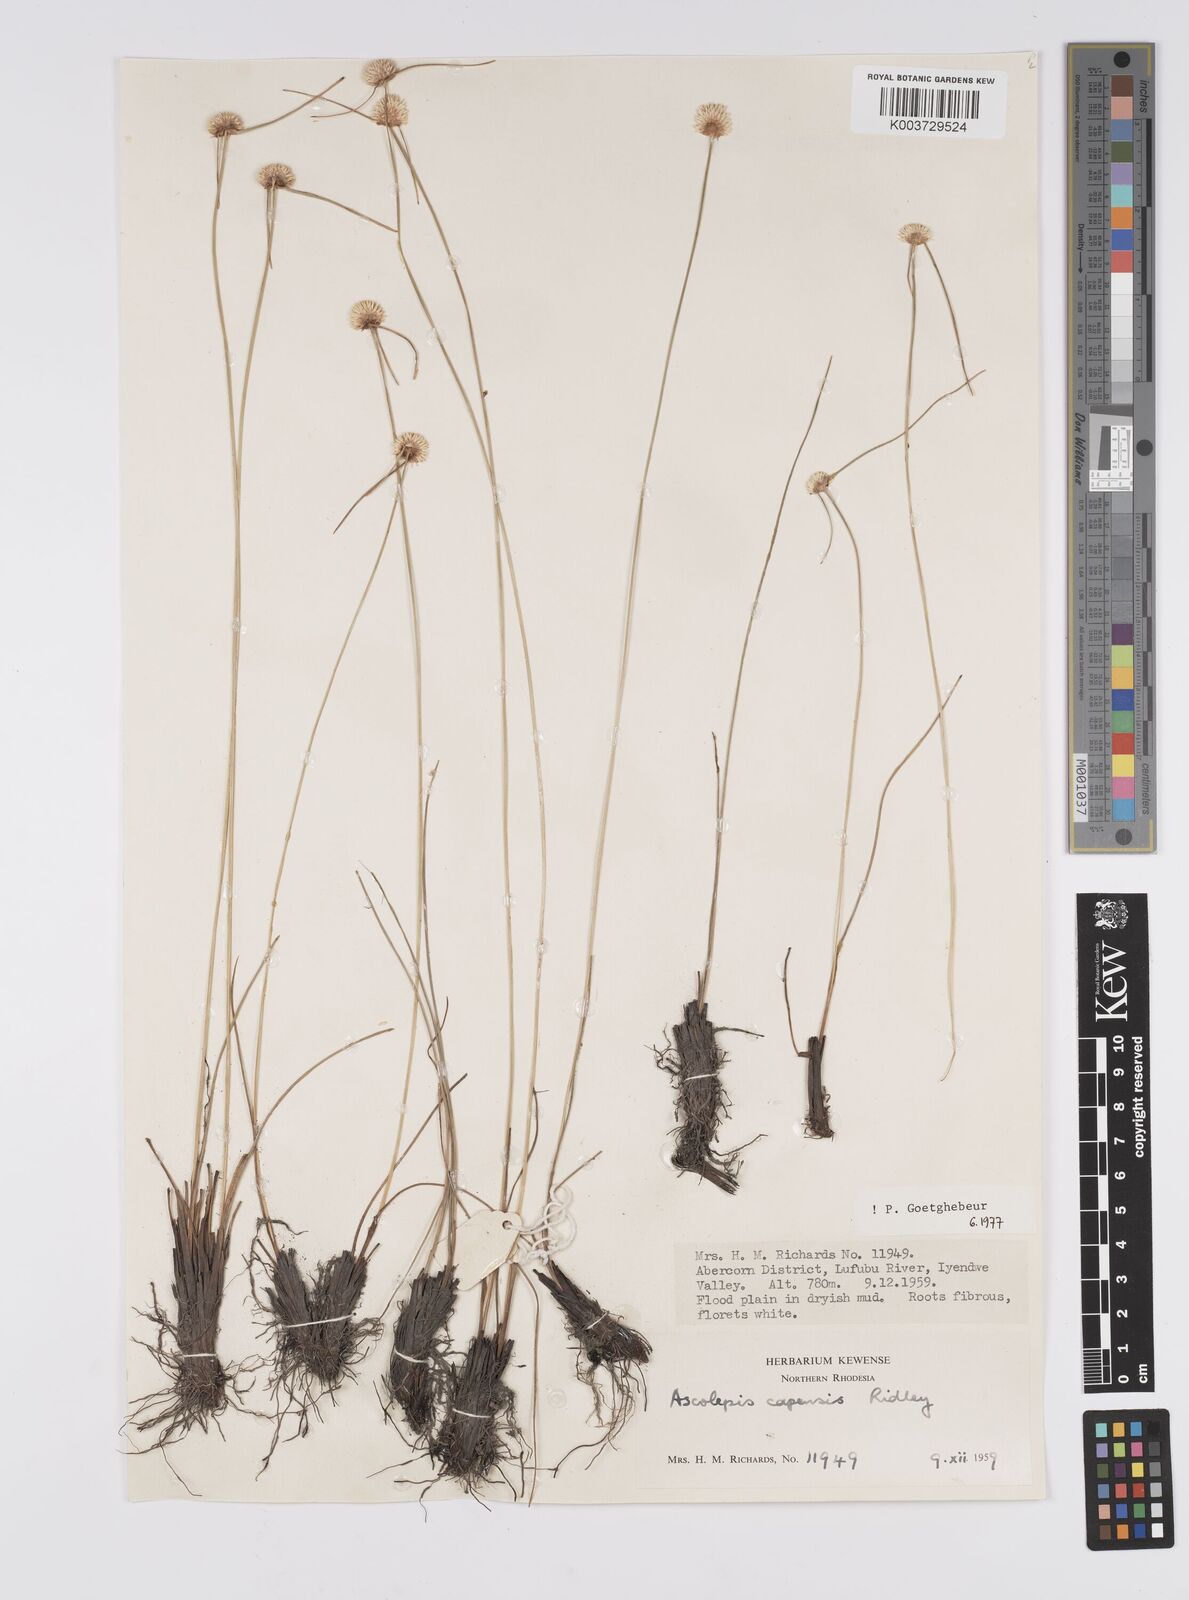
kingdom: Plantae
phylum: Tracheophyta
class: Liliopsida
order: Poales
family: Cyperaceae
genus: Cyperus
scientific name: Cyperus
